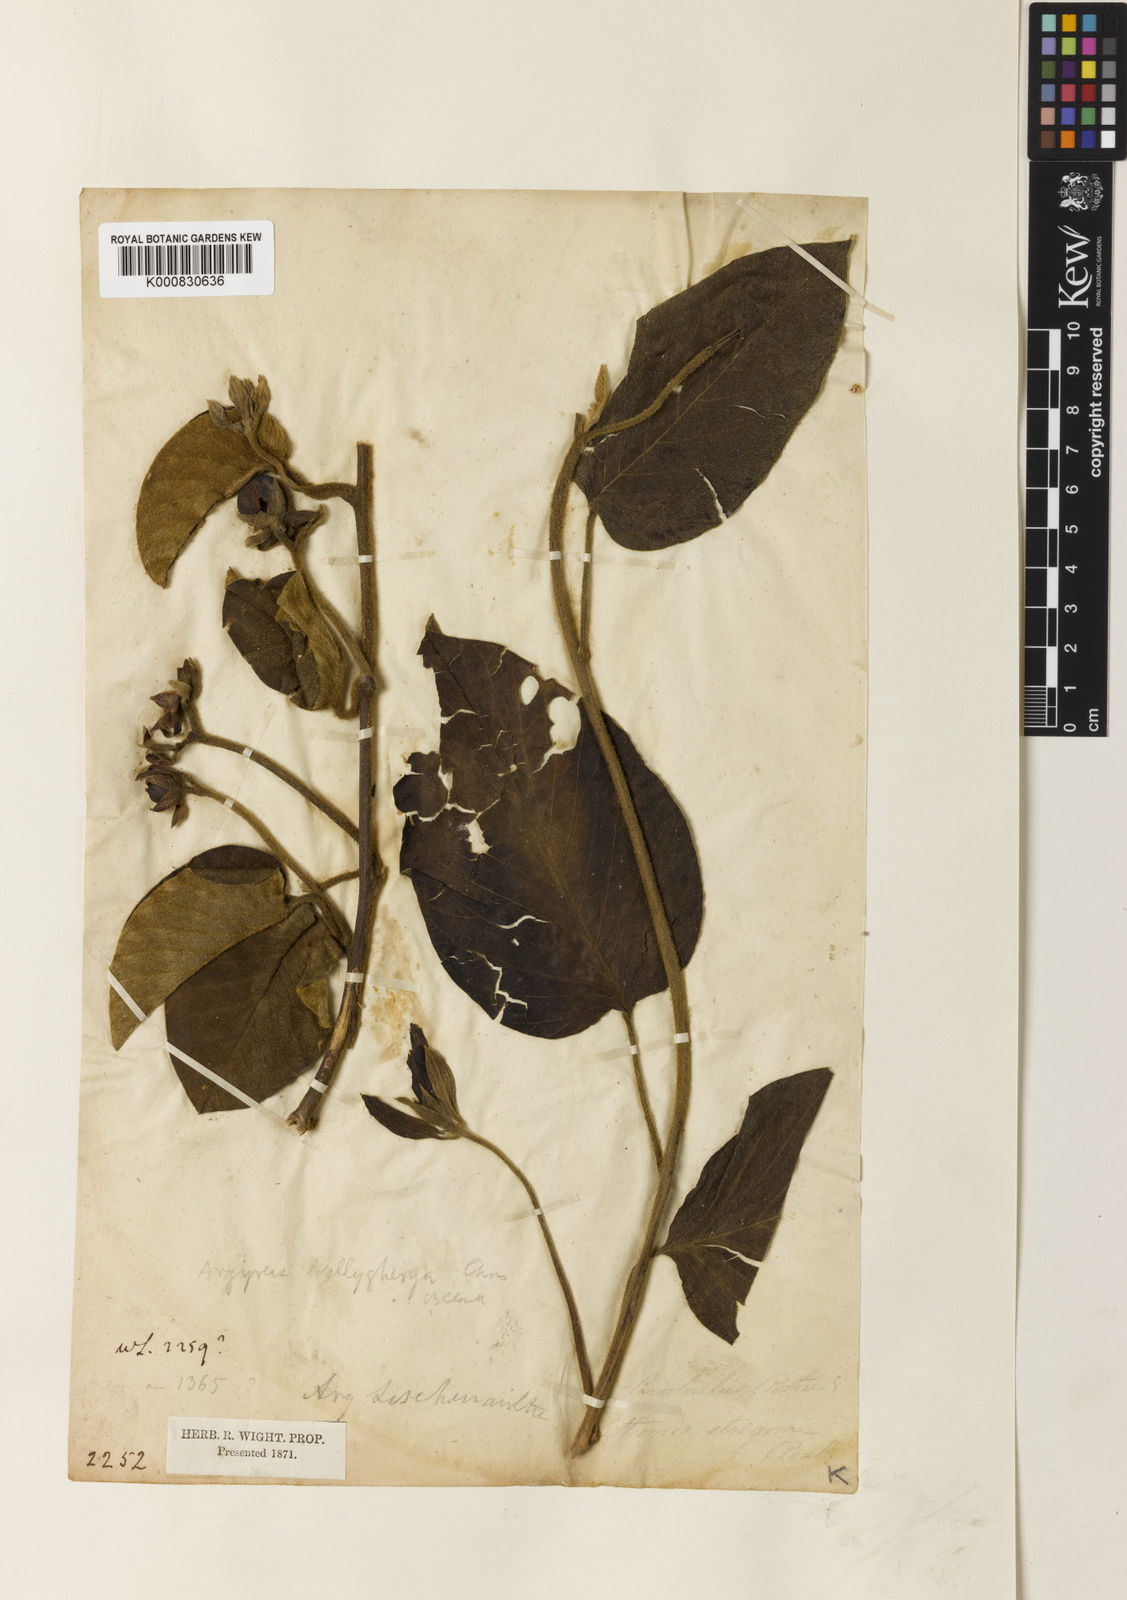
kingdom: Plantae
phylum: Tracheophyta
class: Magnoliopsida
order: Solanales
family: Convolvulaceae
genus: Argyreia
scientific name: Argyreia nellygherya
